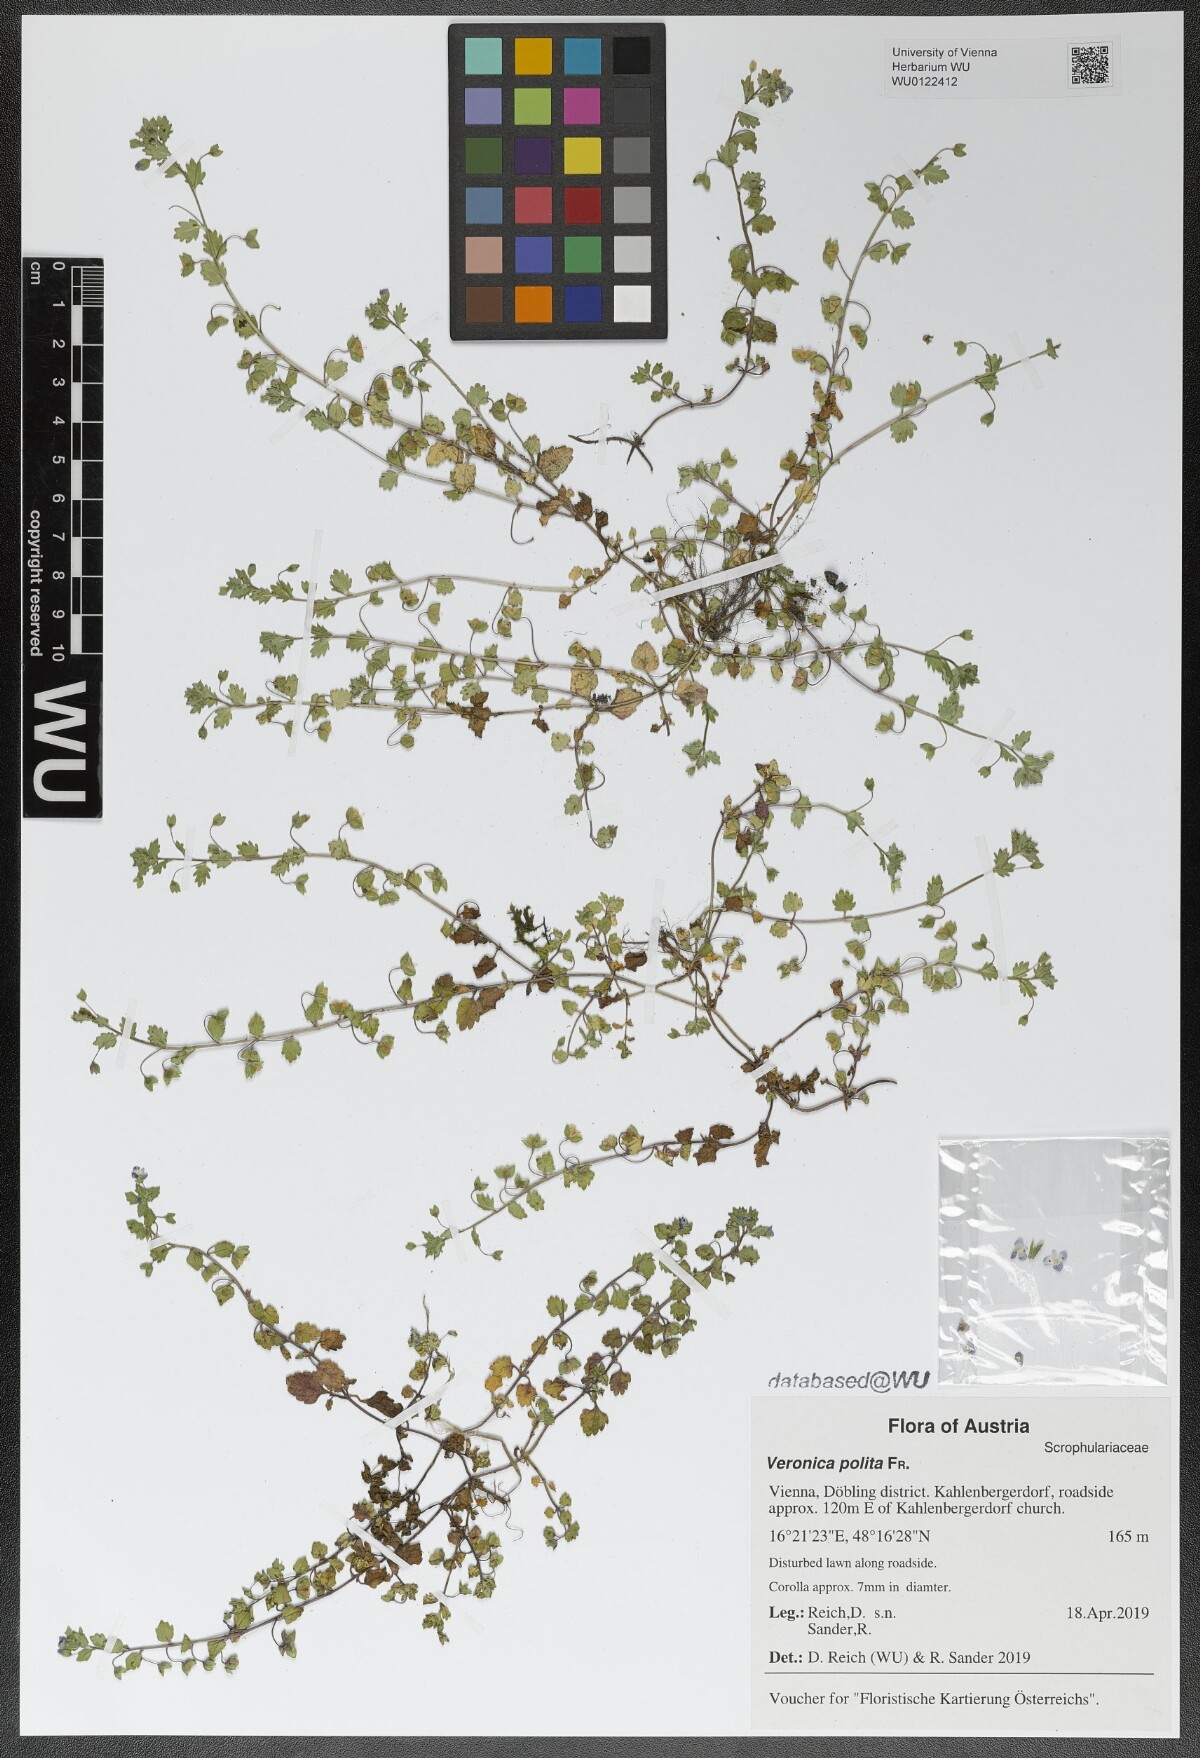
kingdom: Plantae
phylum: Tracheophyta
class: Magnoliopsida
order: Lamiales
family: Plantaginaceae
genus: Veronica
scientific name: Veronica polita
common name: Grey field-speedwell
